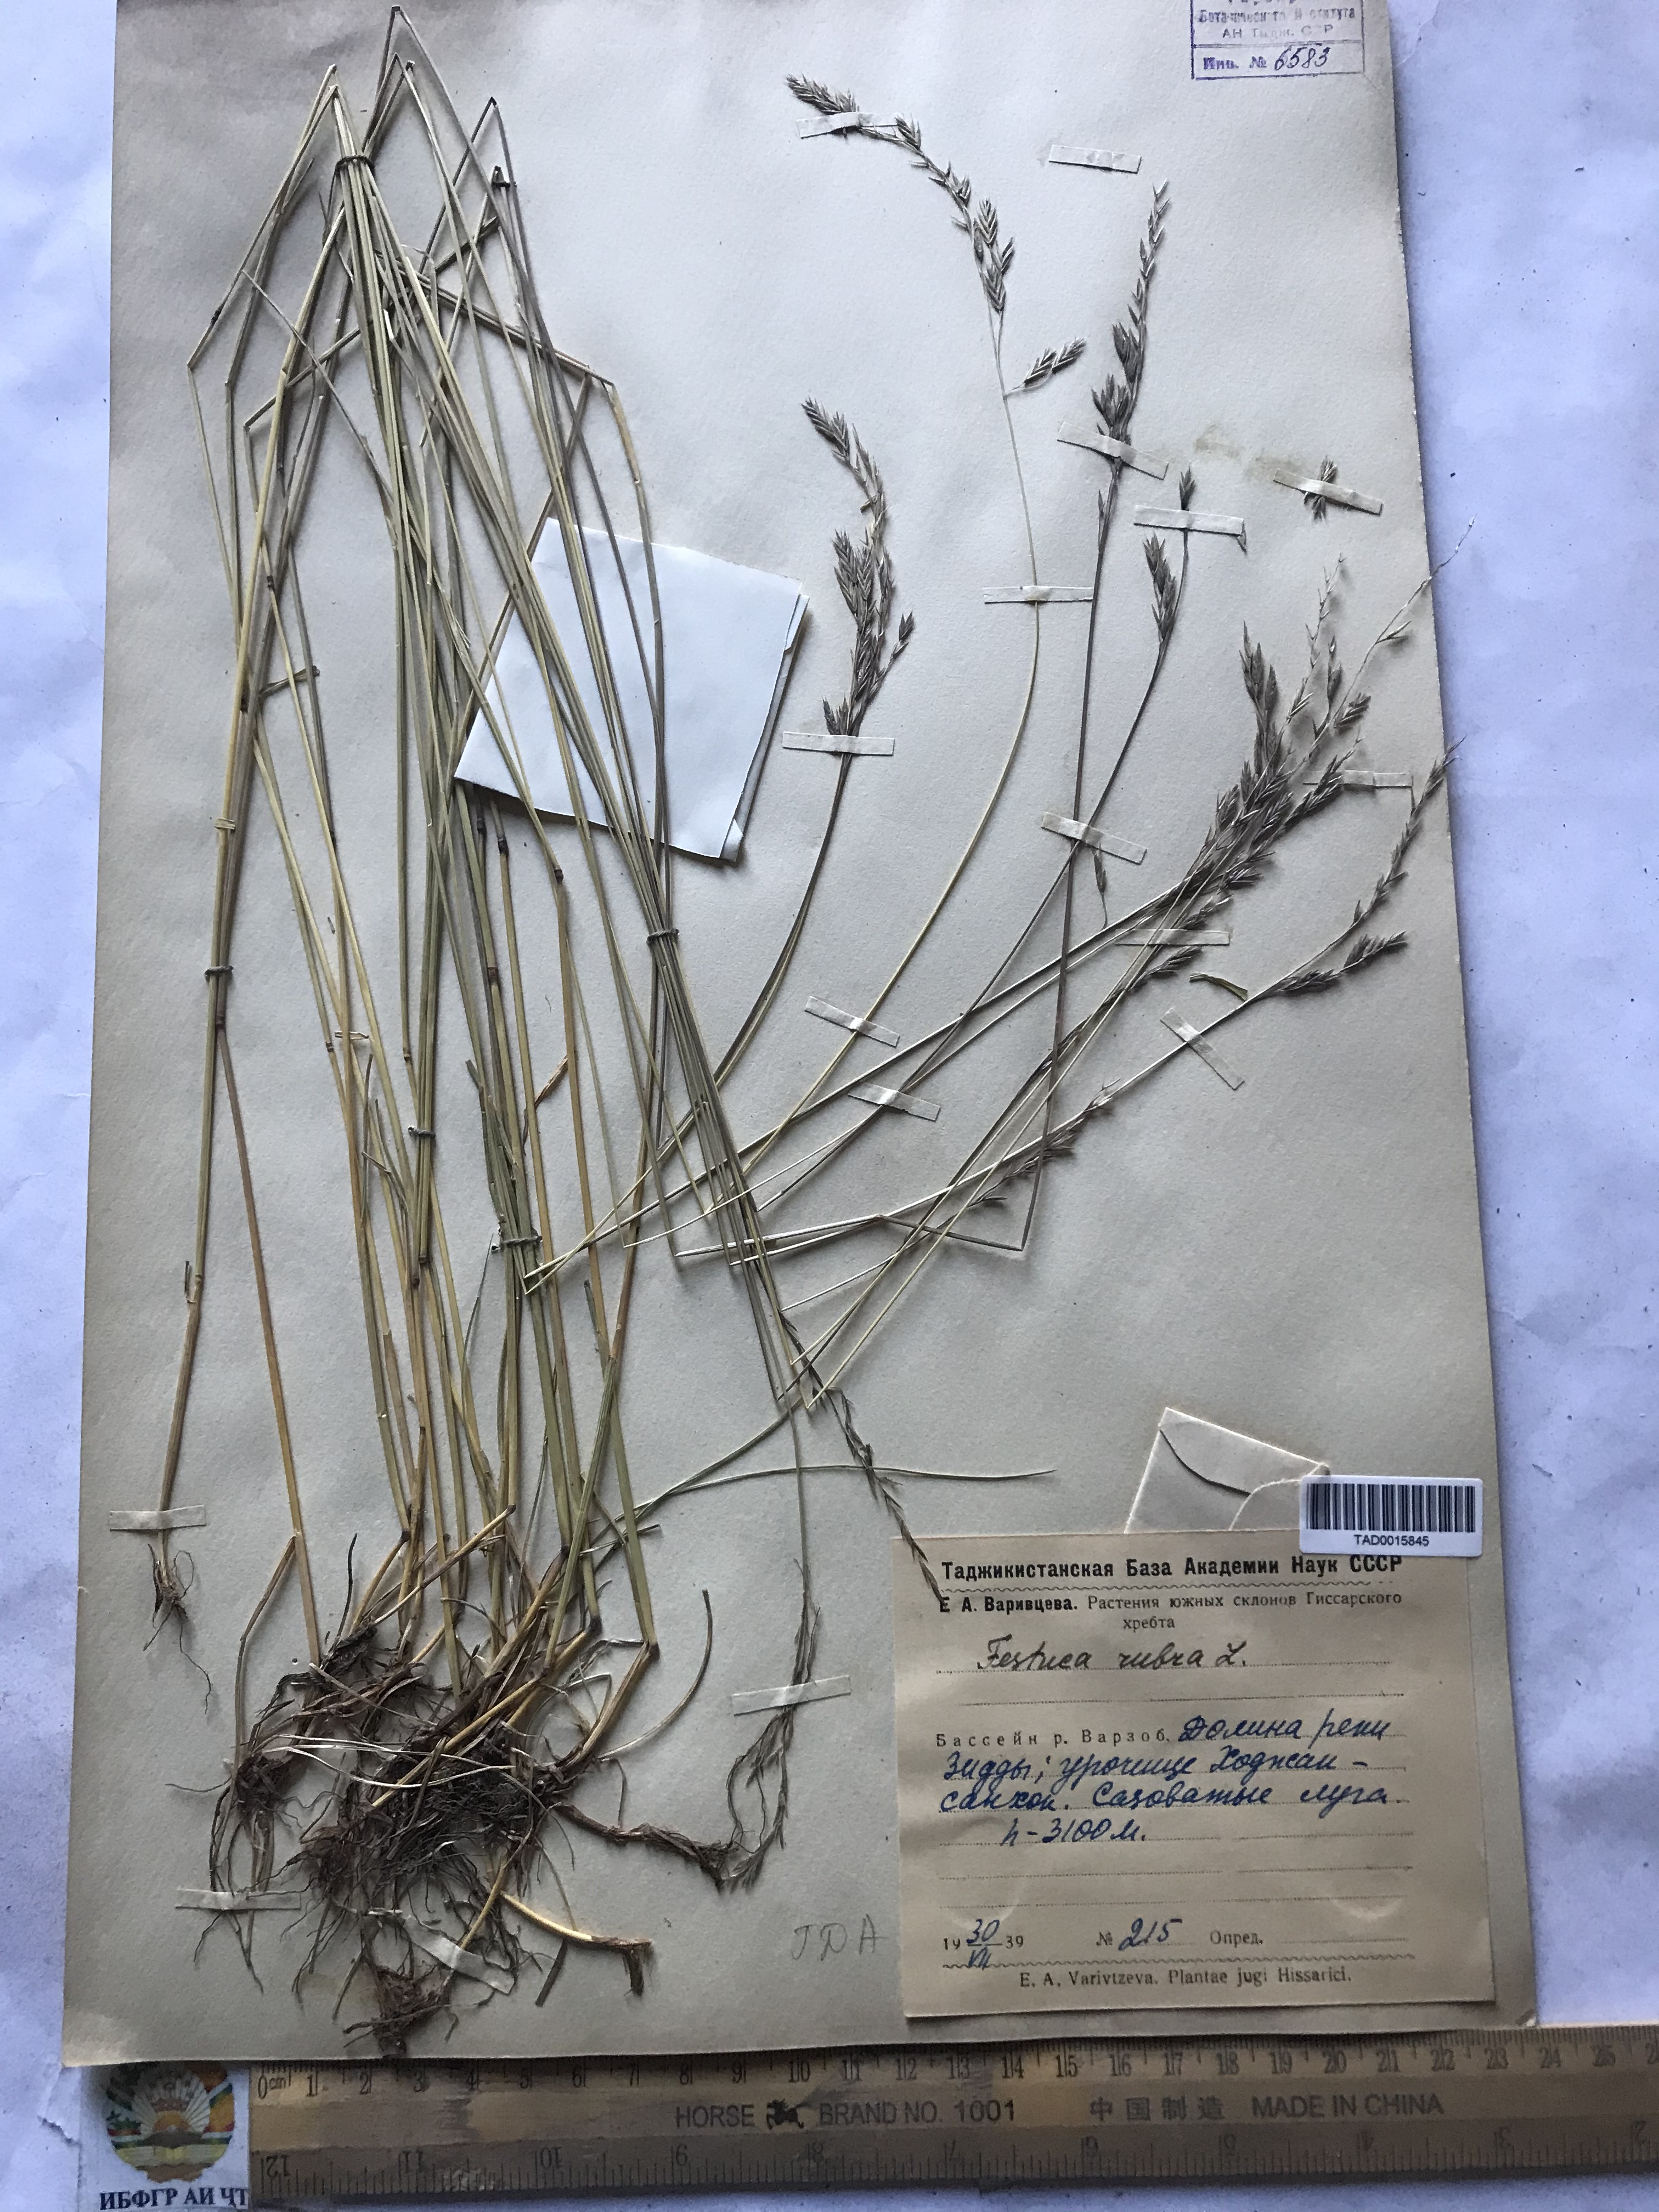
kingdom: Plantae
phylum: Tracheophyta
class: Liliopsida
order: Poales
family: Poaceae
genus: Festuca
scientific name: Festuca rubra
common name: Red fescue
